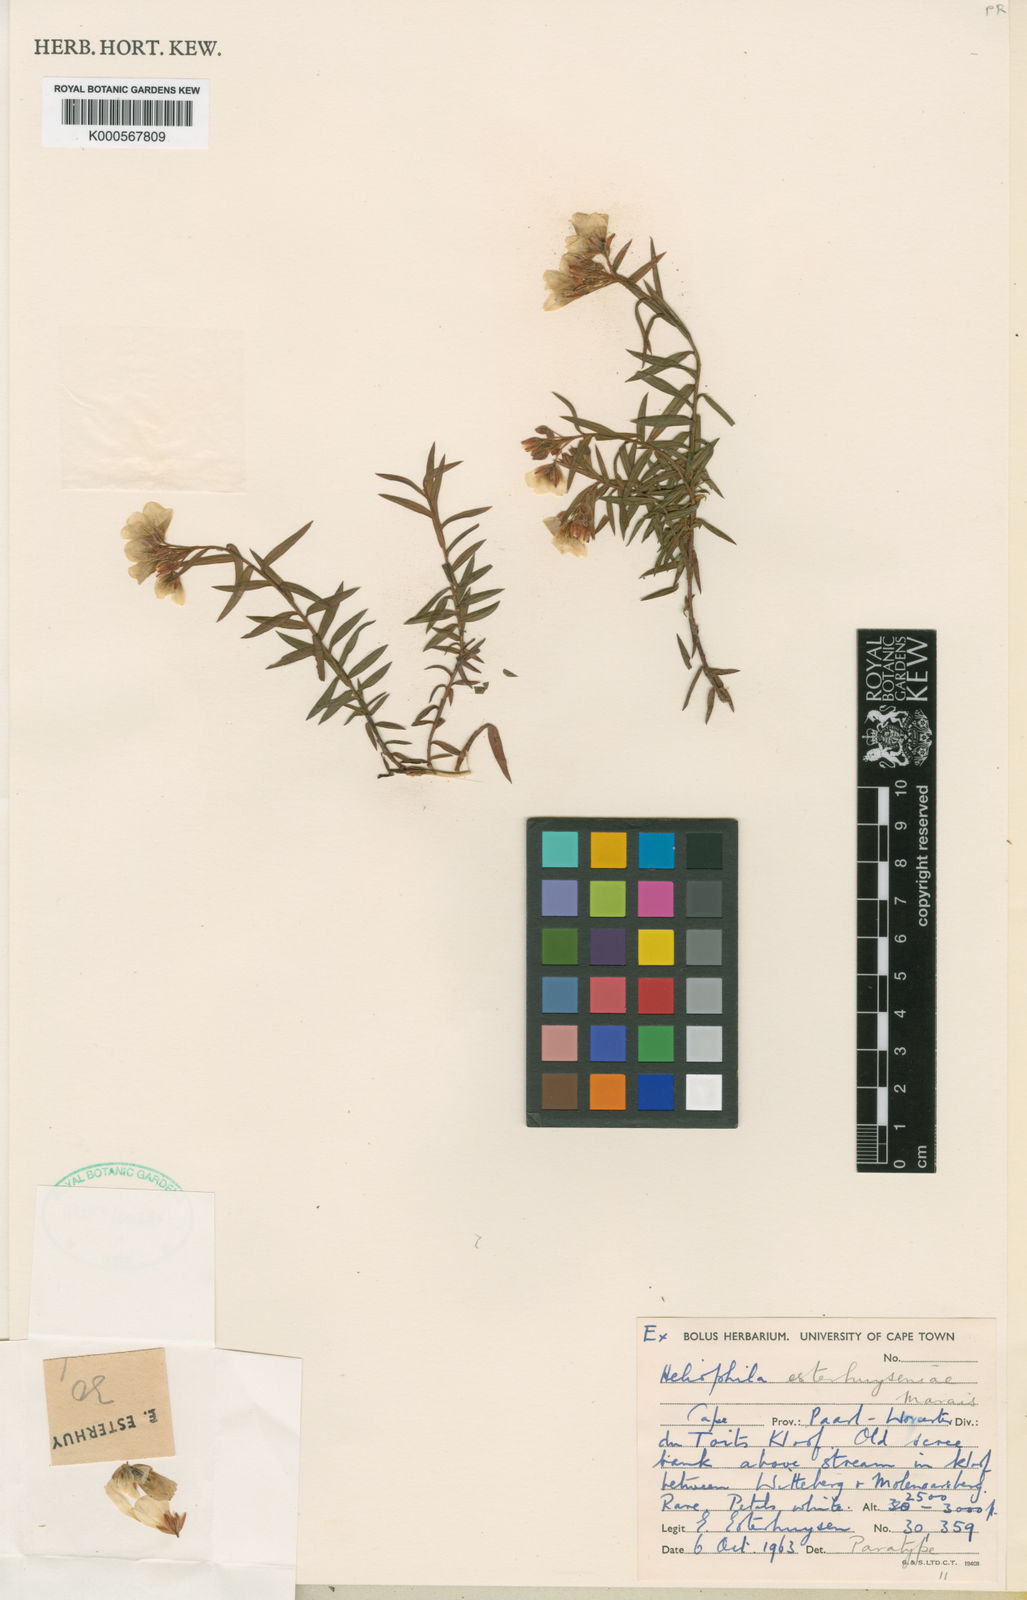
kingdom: Plantae
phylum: Tracheophyta
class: Magnoliopsida
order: Brassicales
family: Brassicaceae
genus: Heliophila
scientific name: Heliophila esterhuyseniae
